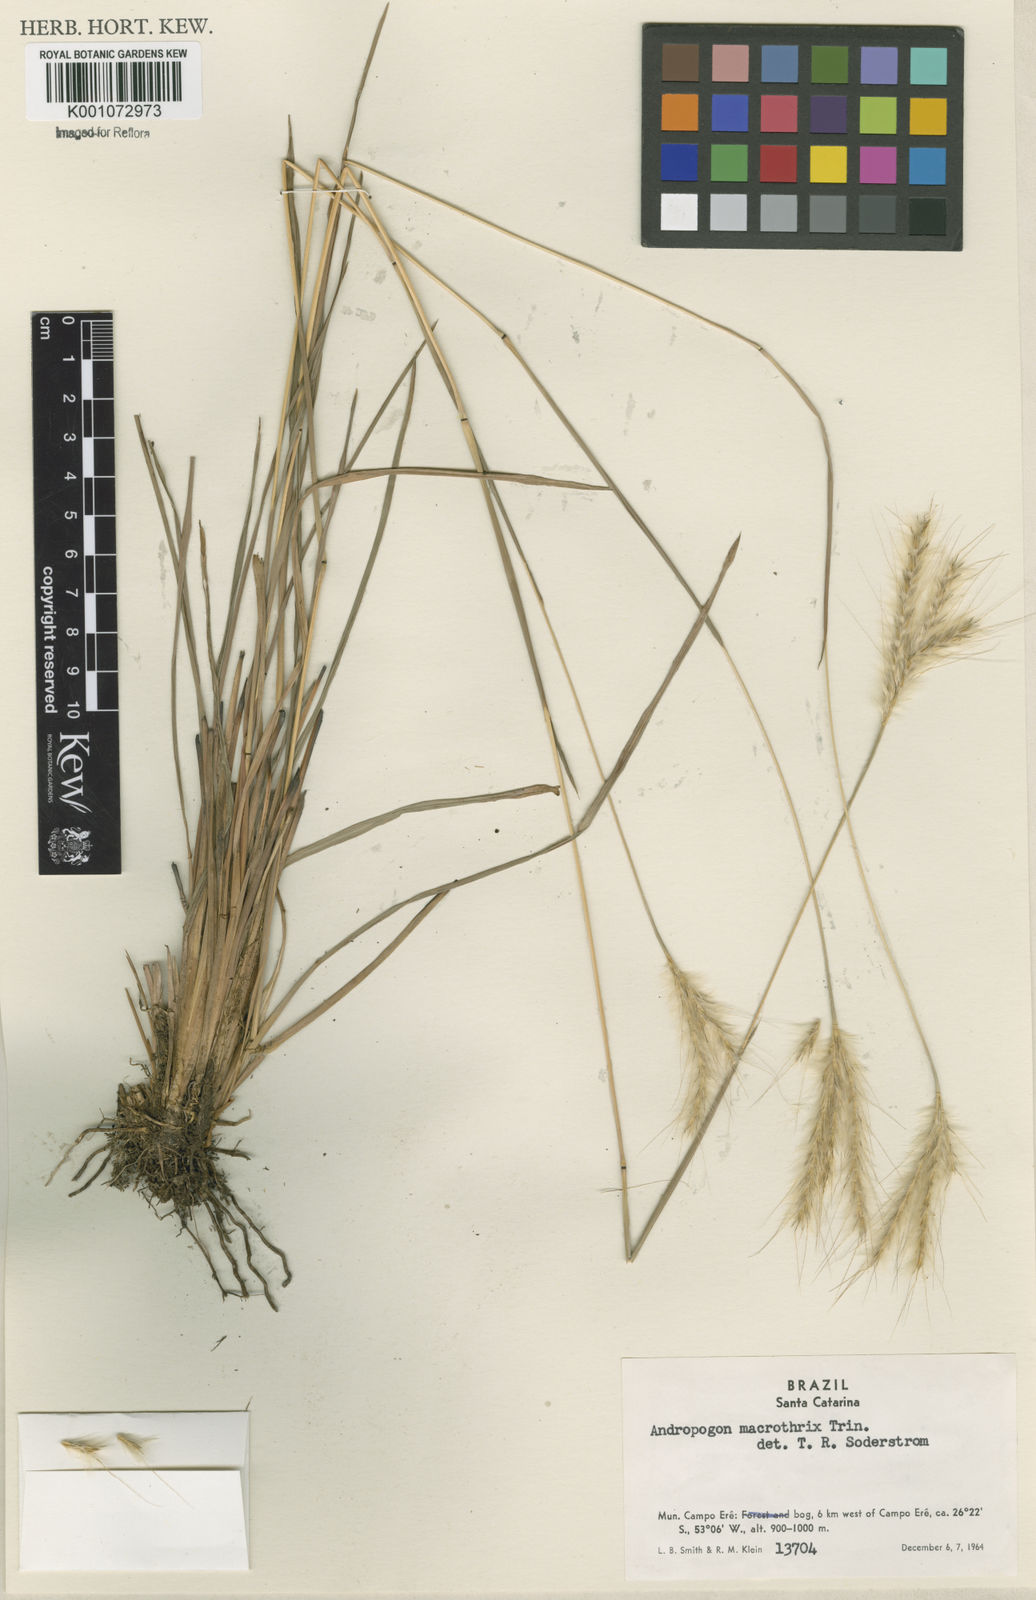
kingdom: Plantae
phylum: Tracheophyta
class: Liliopsida
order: Poales
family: Poaceae
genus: Andropogon
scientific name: Andropogon macrothrix
